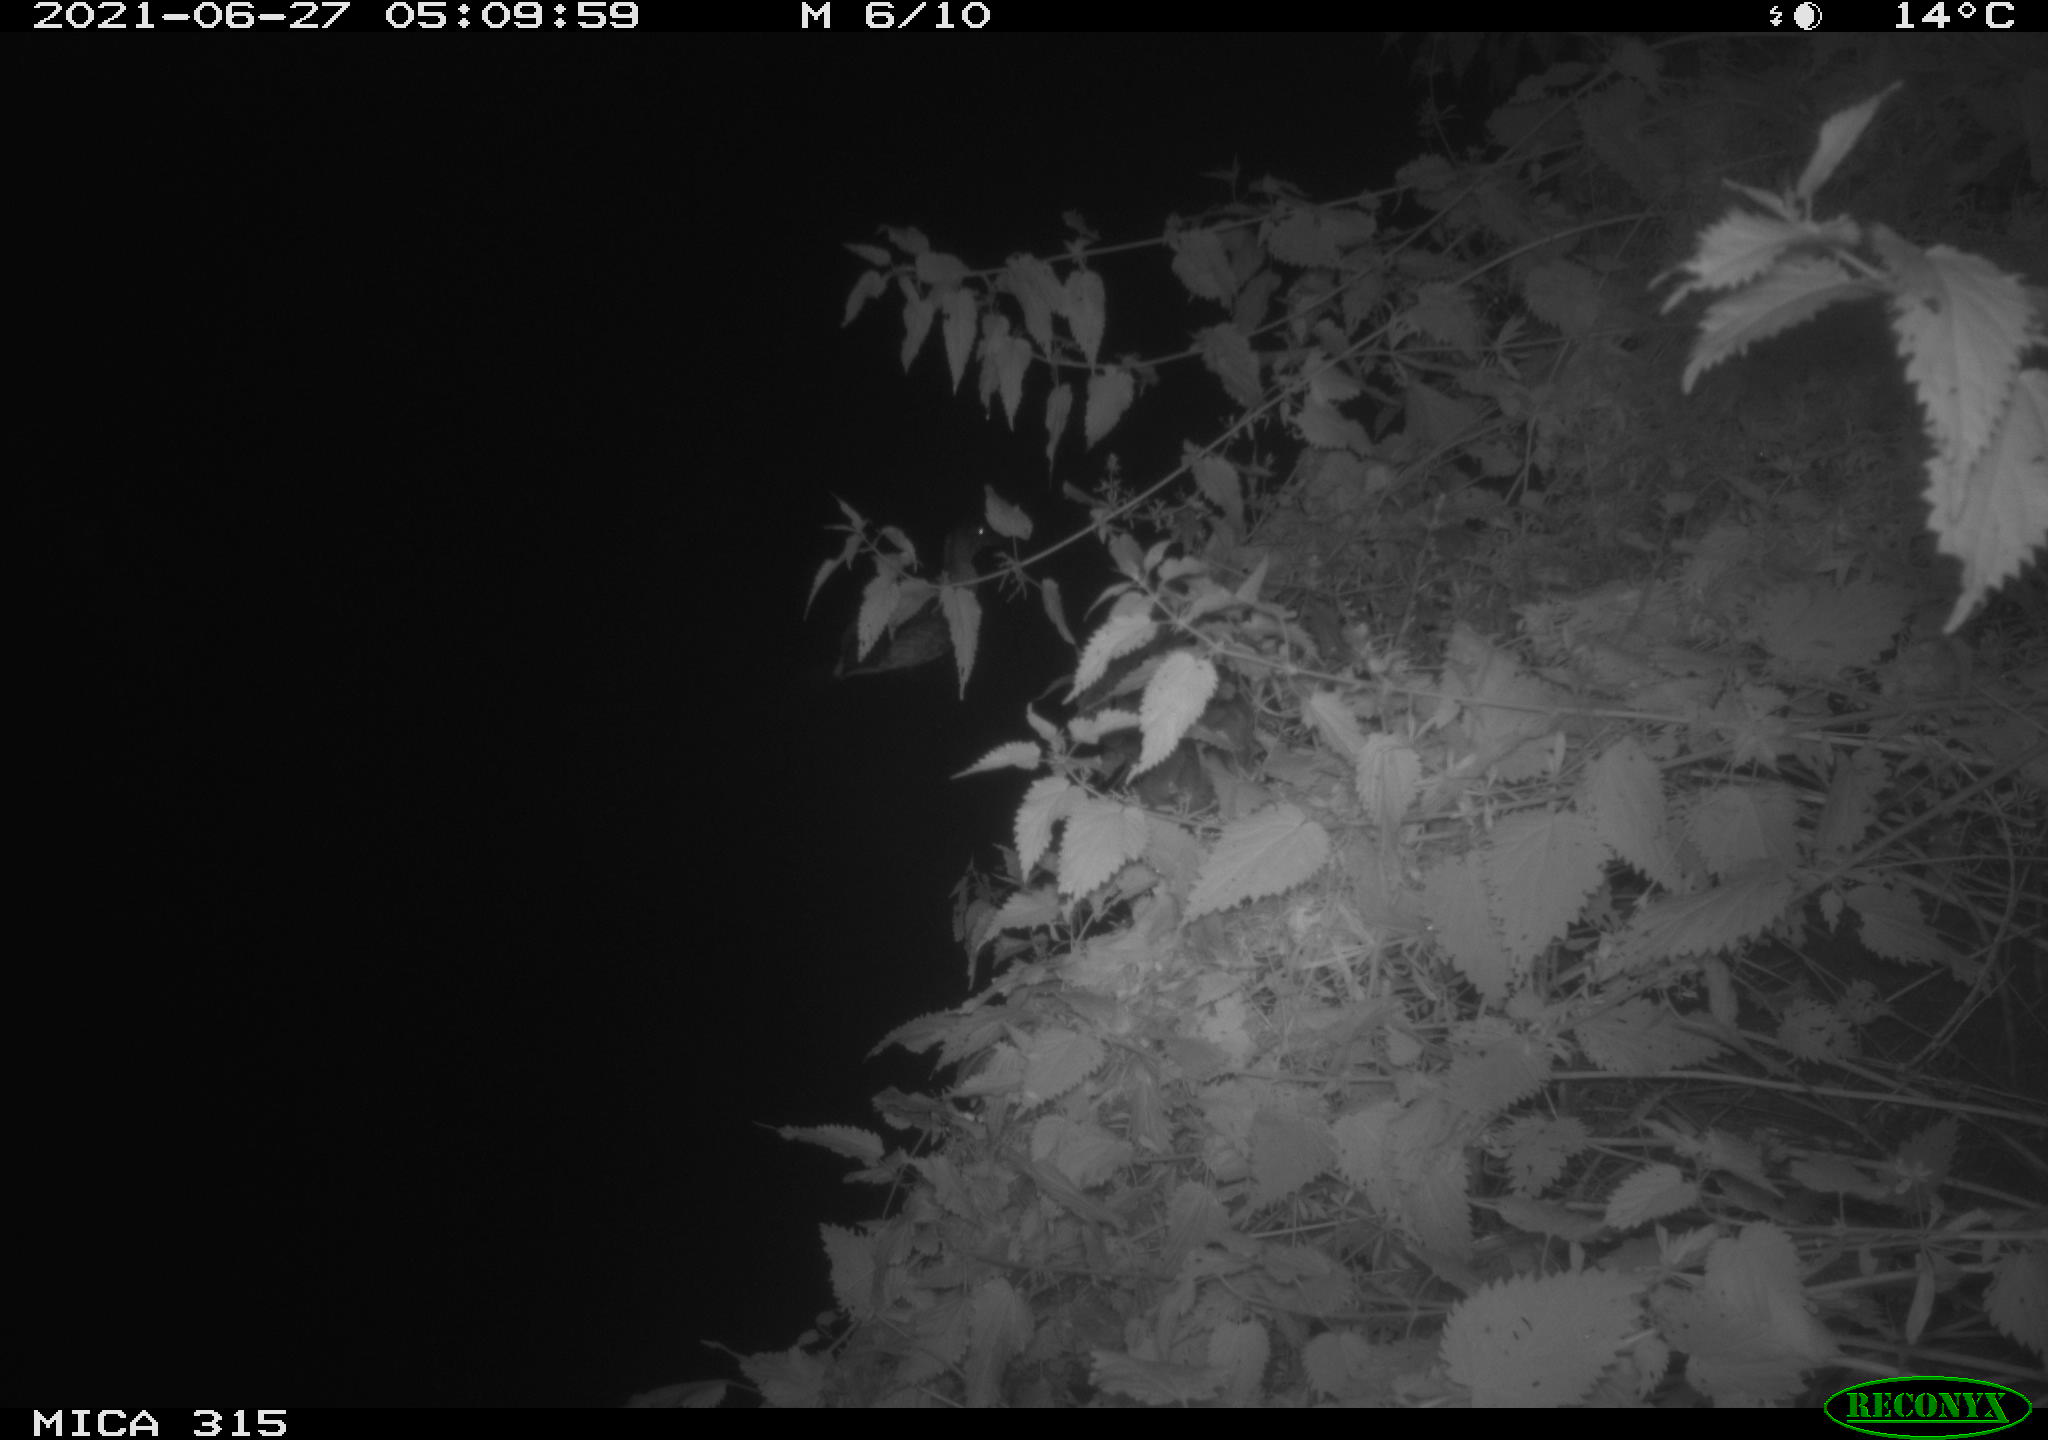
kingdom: Animalia
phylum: Chordata
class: Aves
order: Anseriformes
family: Anatidae
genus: Anas
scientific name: Anas platyrhynchos
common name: Mallard
